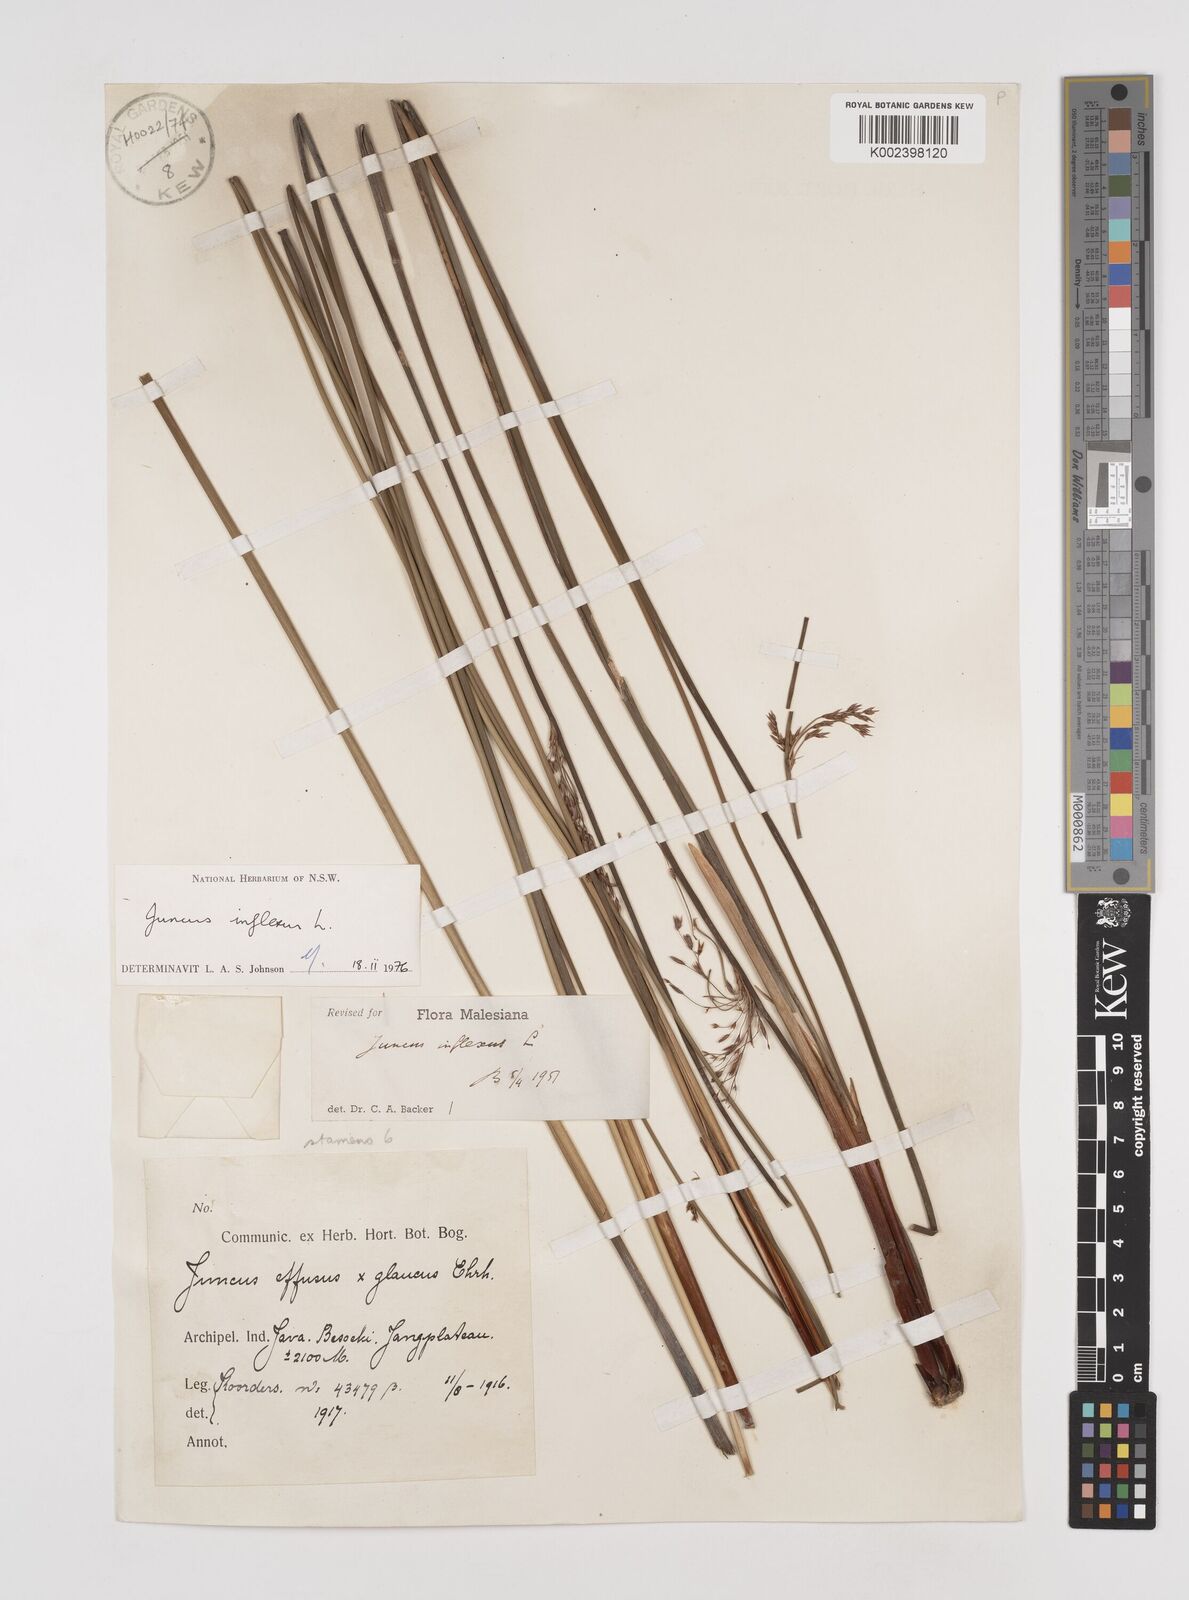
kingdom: Plantae
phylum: Tracheophyta
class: Liliopsida
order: Poales
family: Juncaceae
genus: Juncus
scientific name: Juncus inflexus
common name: Hard rush
